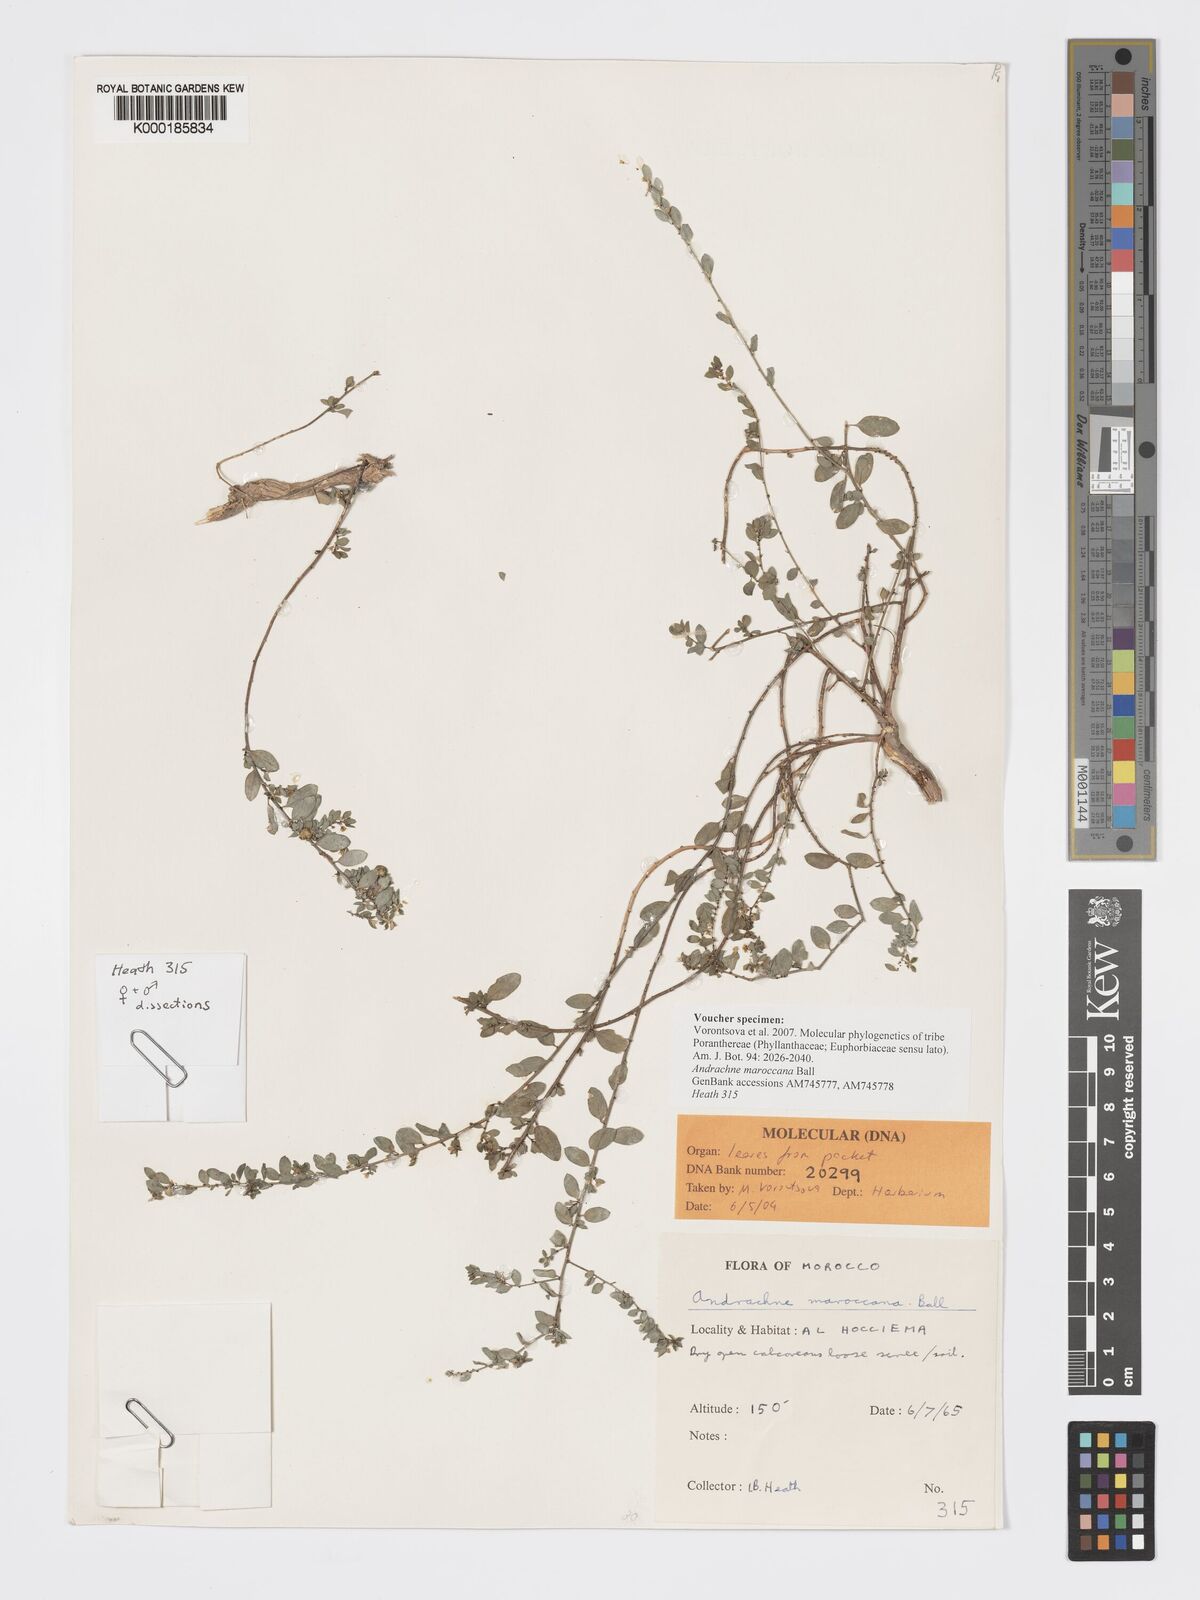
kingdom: Plantae
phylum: Tracheophyta
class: Magnoliopsida
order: Malpighiales
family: Phyllanthaceae
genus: Andrachne
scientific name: Andrachne maroccana
